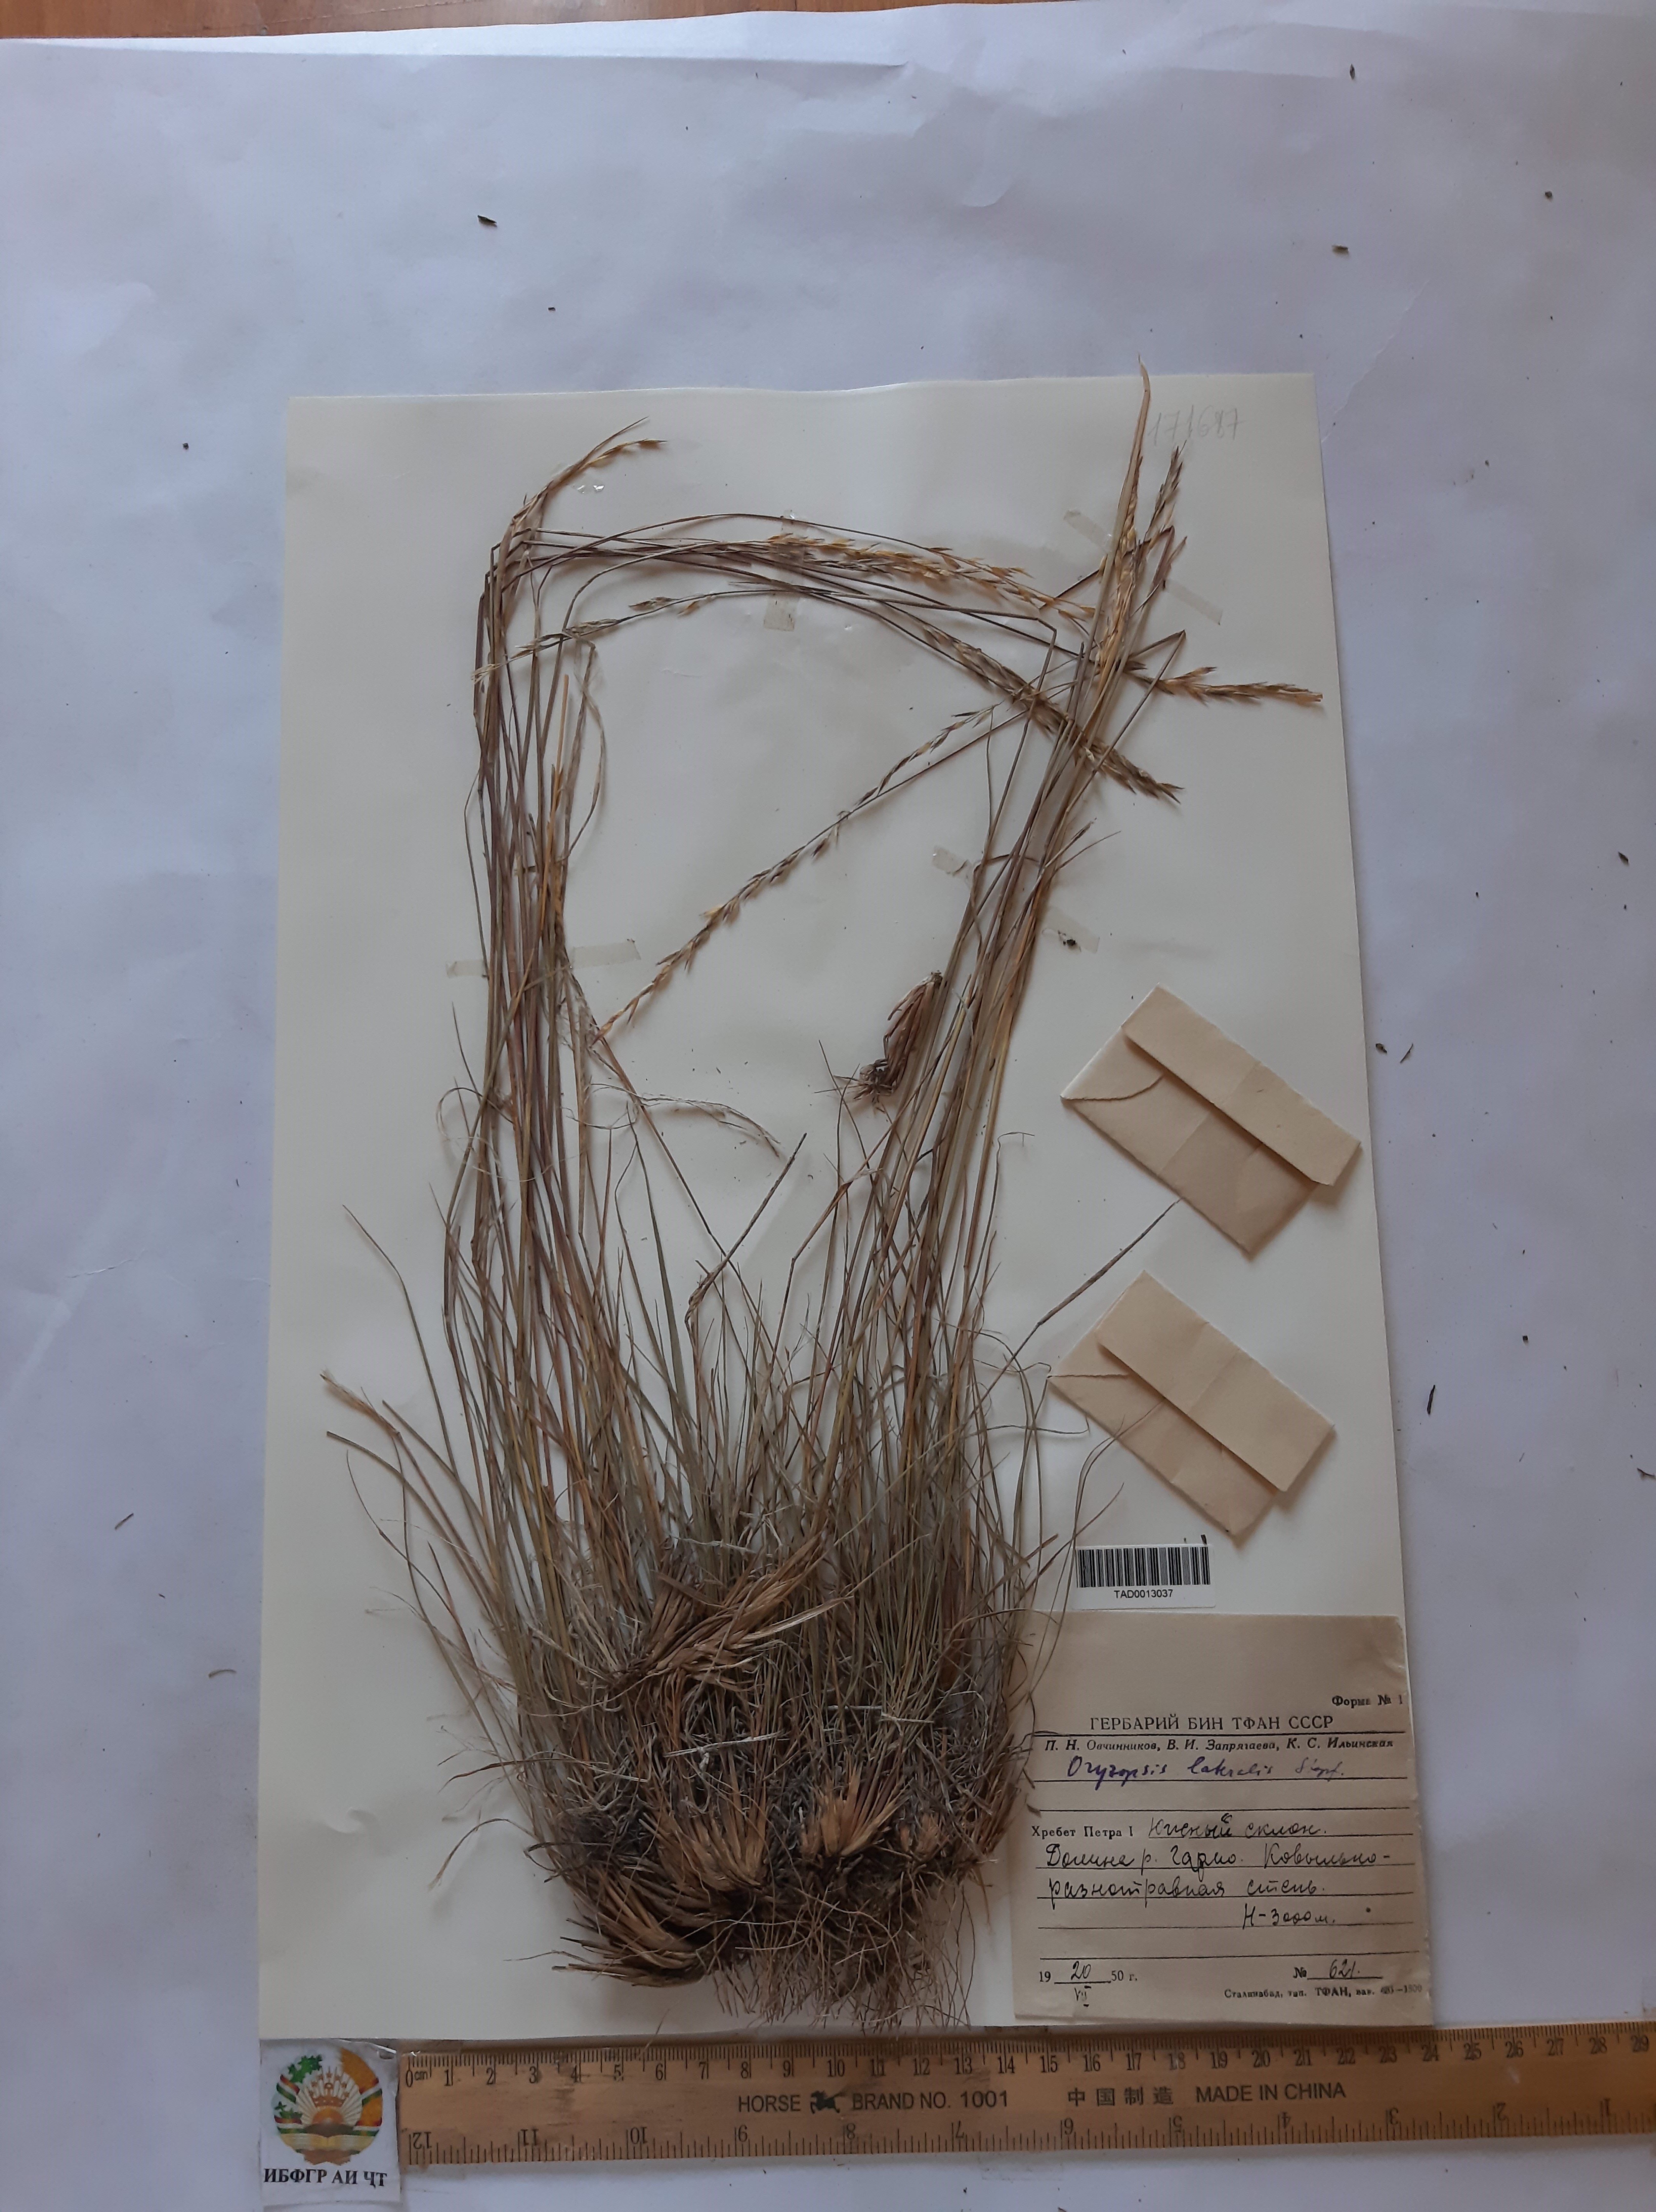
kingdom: Plantae
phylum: Tracheophyta
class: Liliopsida
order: Poales
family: Poaceae
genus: Piptatherum
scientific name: Piptatherum laterale
